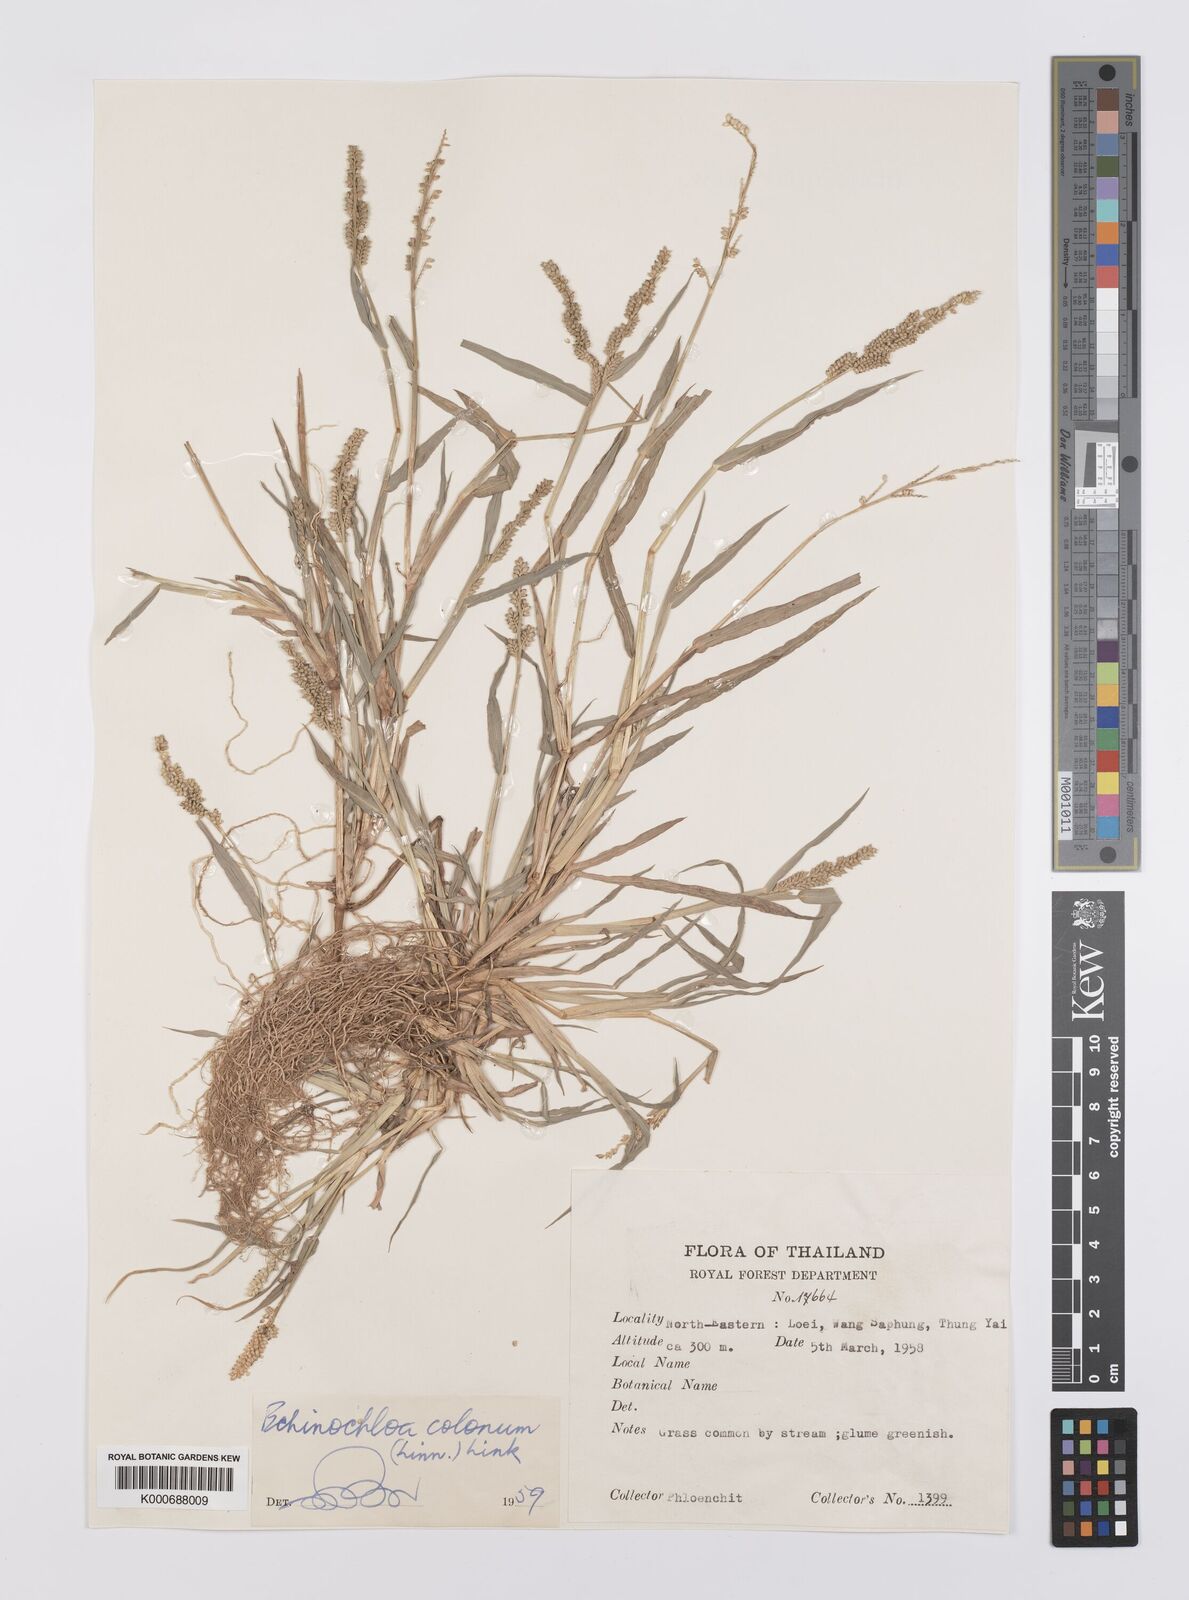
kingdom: Plantae
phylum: Tracheophyta
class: Liliopsida
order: Poales
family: Poaceae
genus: Echinochloa
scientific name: Echinochloa colonum
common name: Jungle rice
